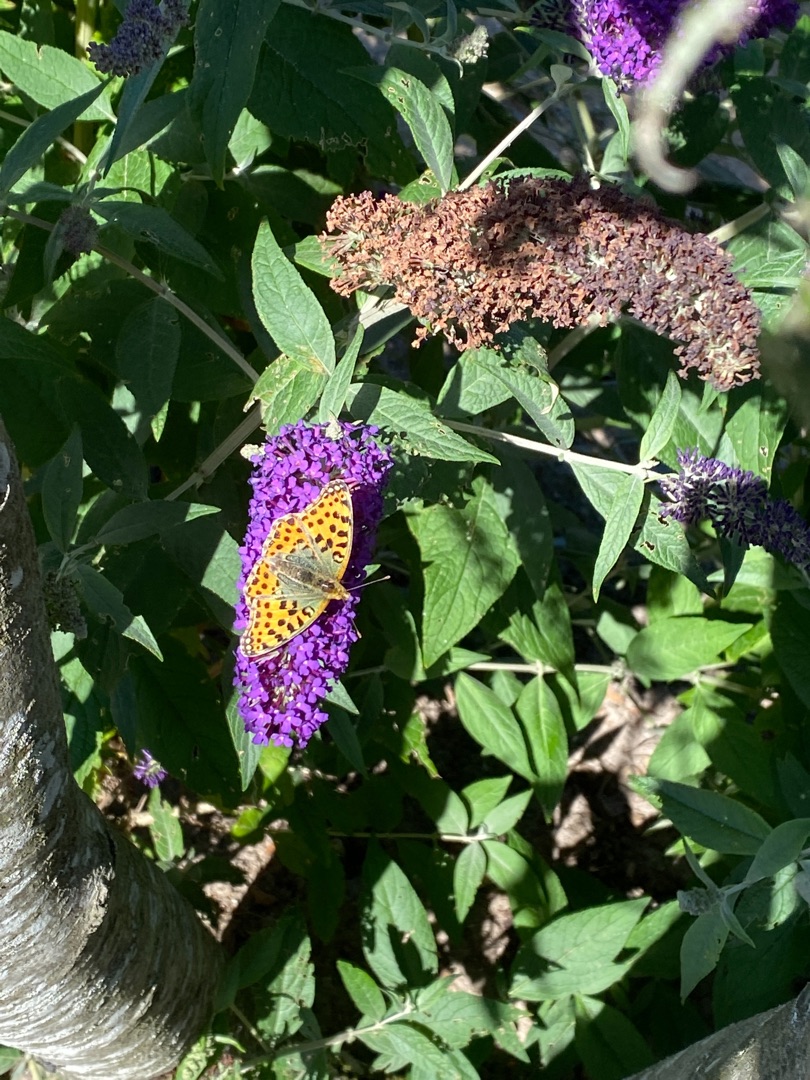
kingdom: Animalia
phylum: Arthropoda
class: Insecta
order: Lepidoptera
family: Nymphalidae
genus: Issoria
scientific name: Issoria lathonia
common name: Storplettet perlemorsommerfugl
